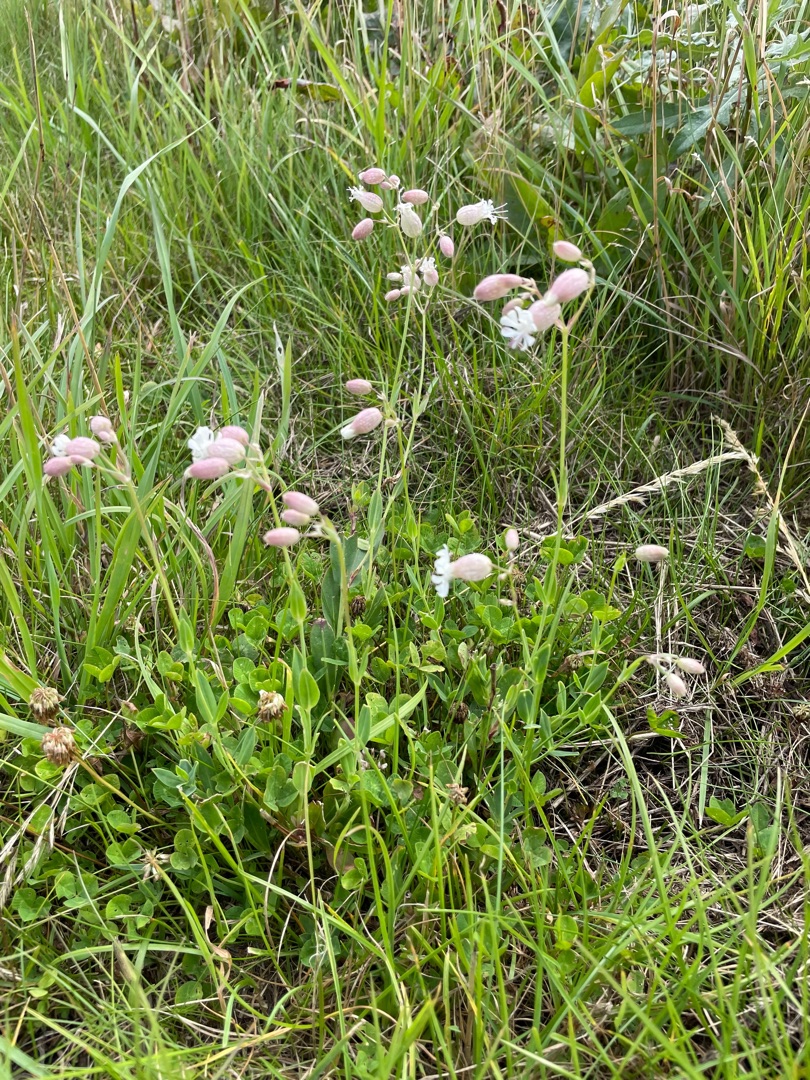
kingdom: Plantae
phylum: Tracheophyta
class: Magnoliopsida
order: Caryophyllales
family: Caryophyllaceae
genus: Silene
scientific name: Silene vulgaris
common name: Blæresmælde
